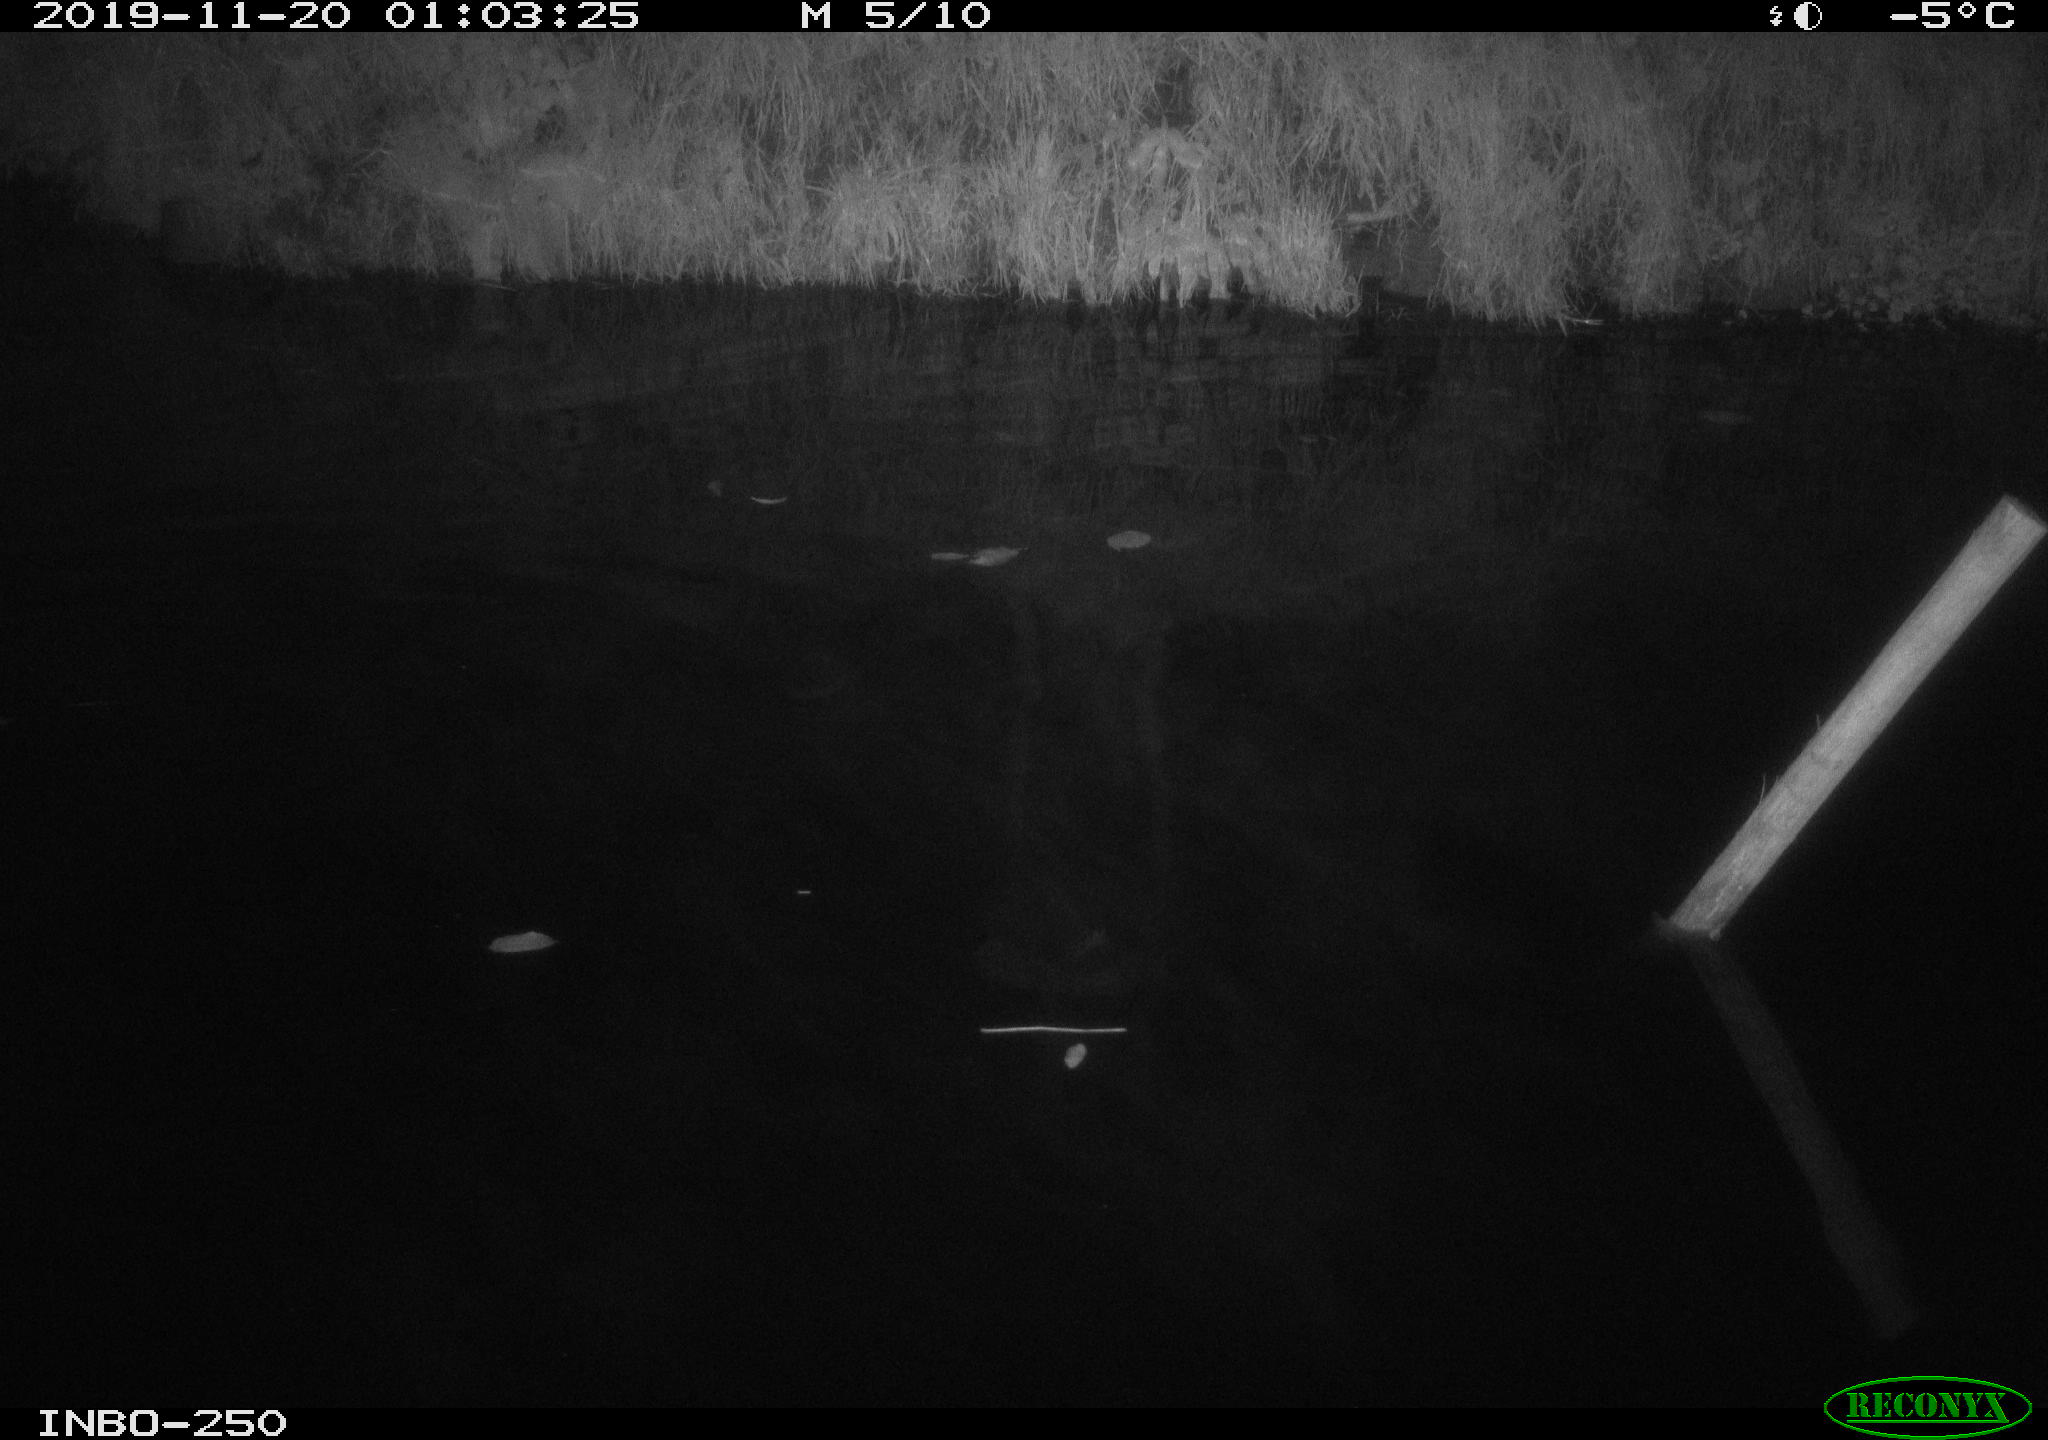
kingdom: Animalia
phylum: Chordata
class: Aves
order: Anseriformes
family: Anatidae
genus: Anas
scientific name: Anas platyrhynchos
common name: Mallard
